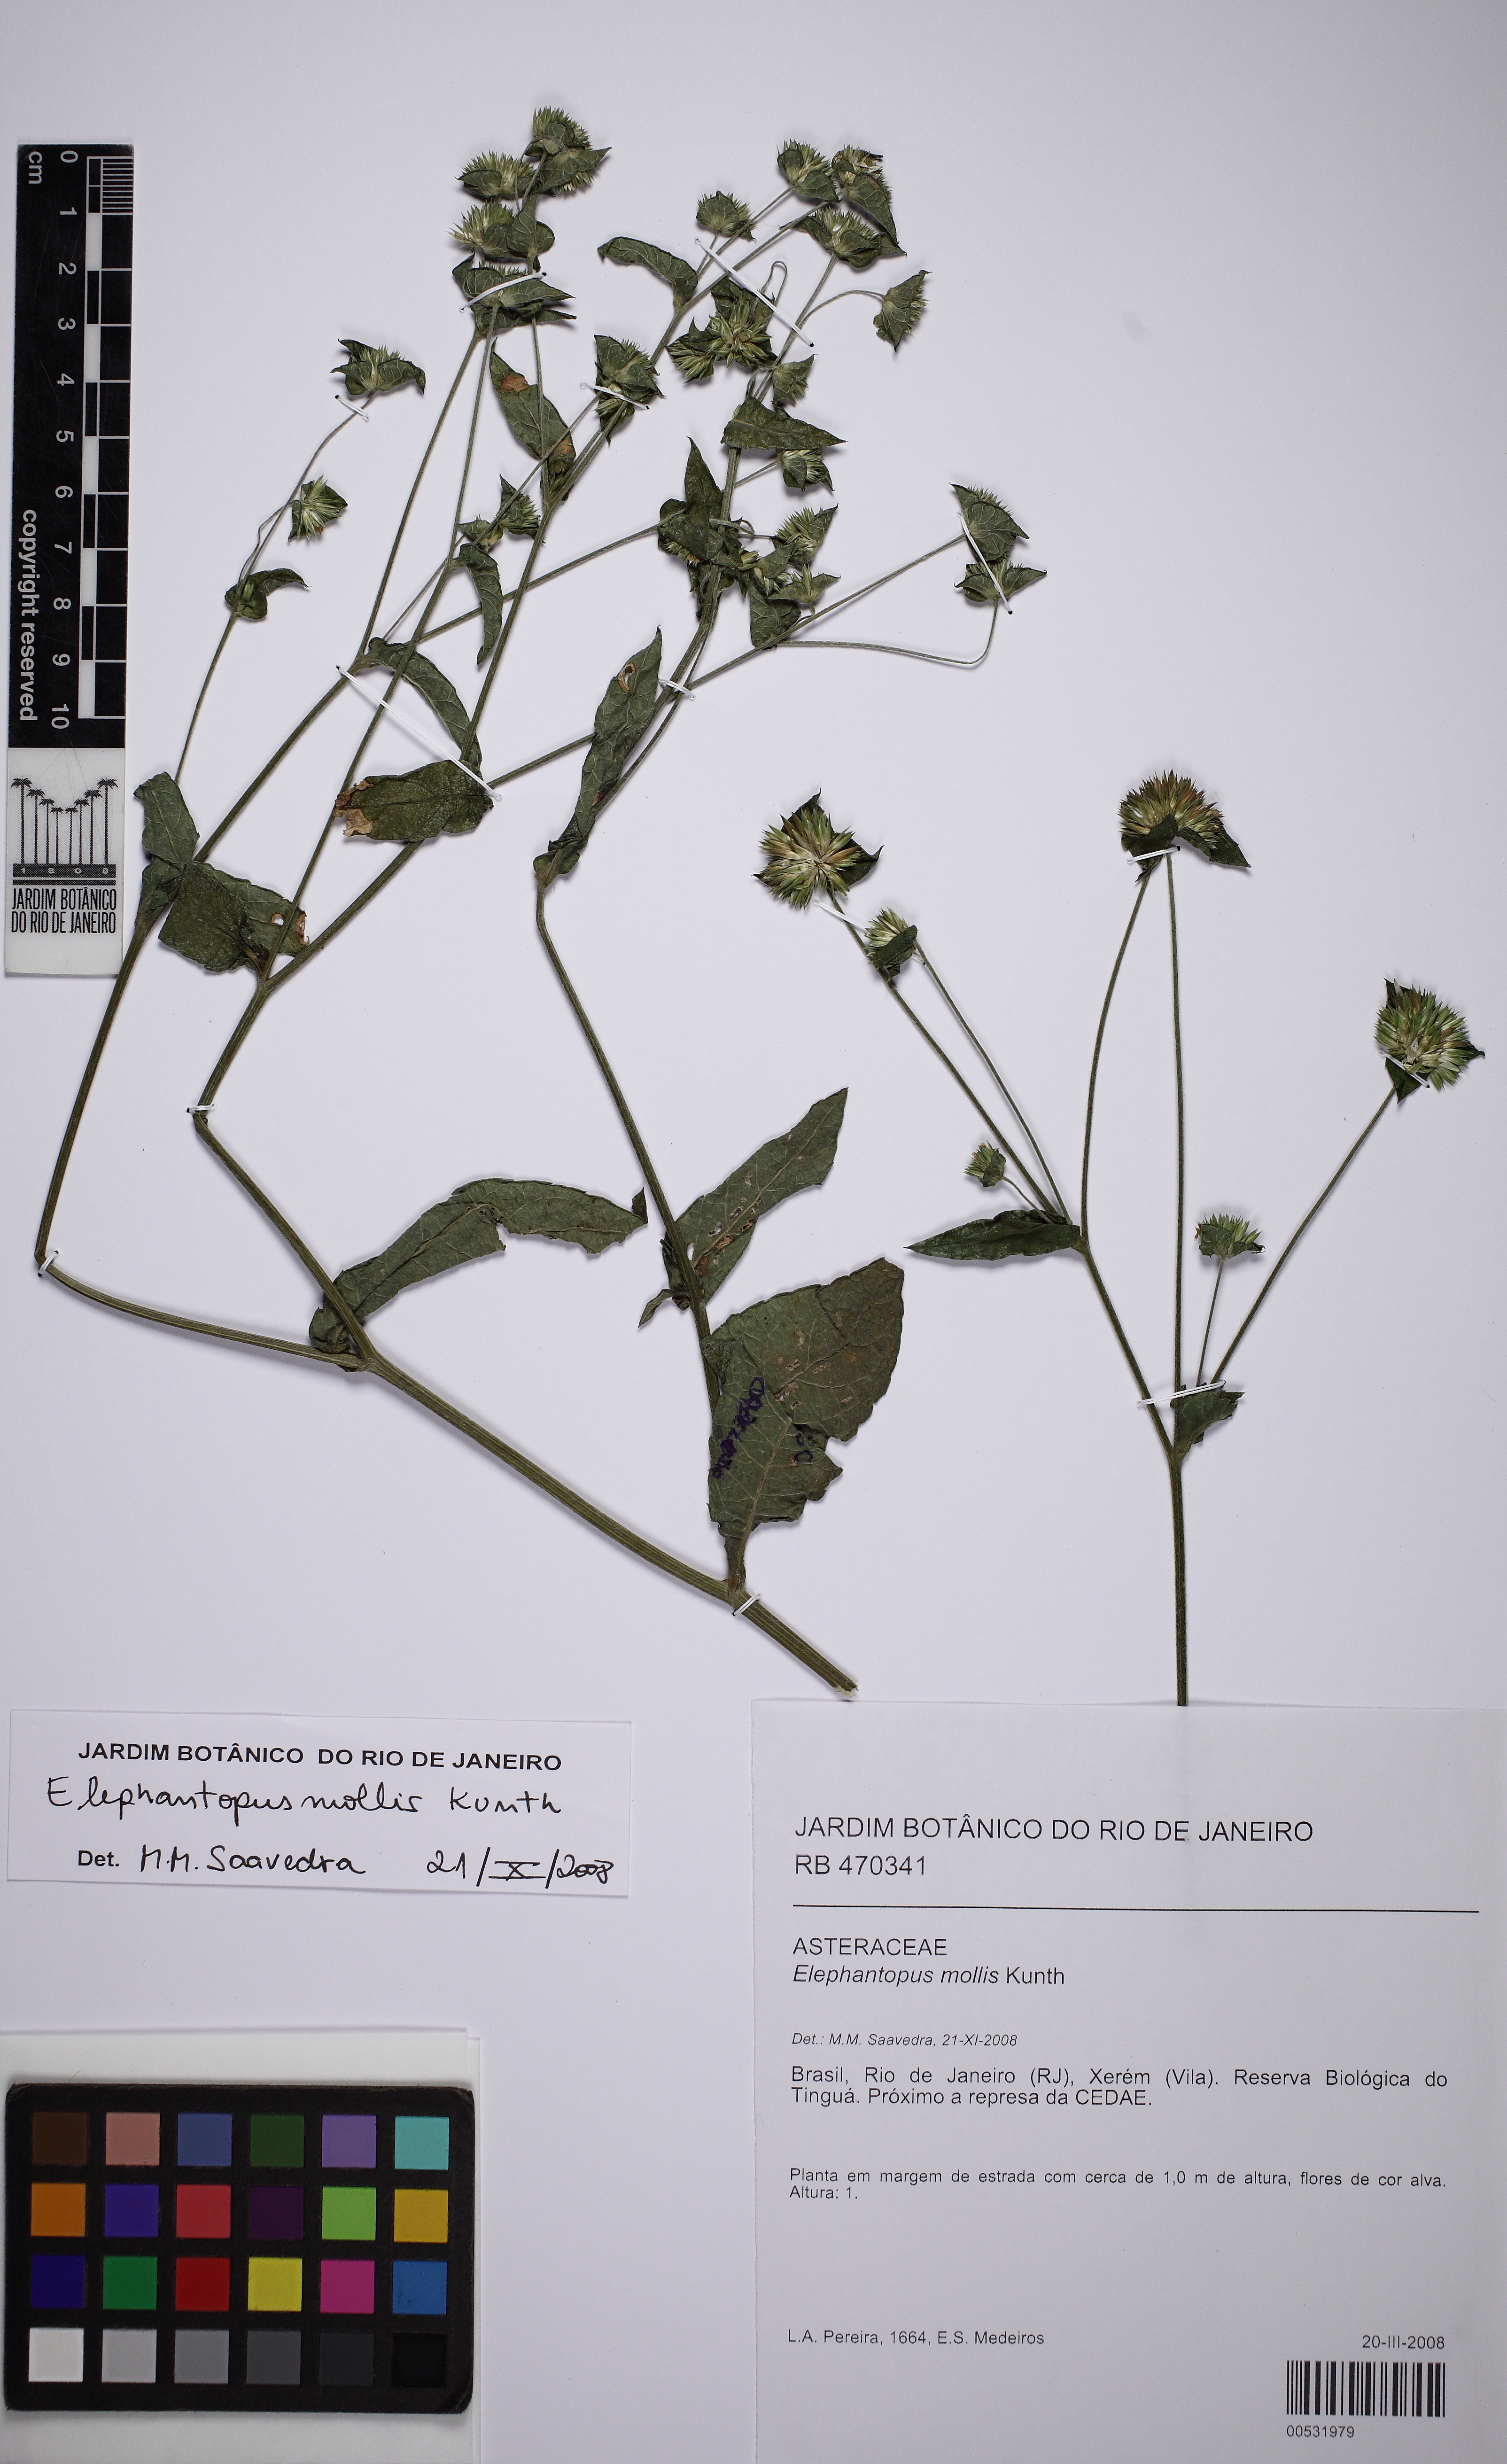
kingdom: Plantae
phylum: Tracheophyta
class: Magnoliopsida
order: Asterales
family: Asteraceae
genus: Elephantopus
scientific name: Elephantopus mollis
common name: Soft elephantsfoot
